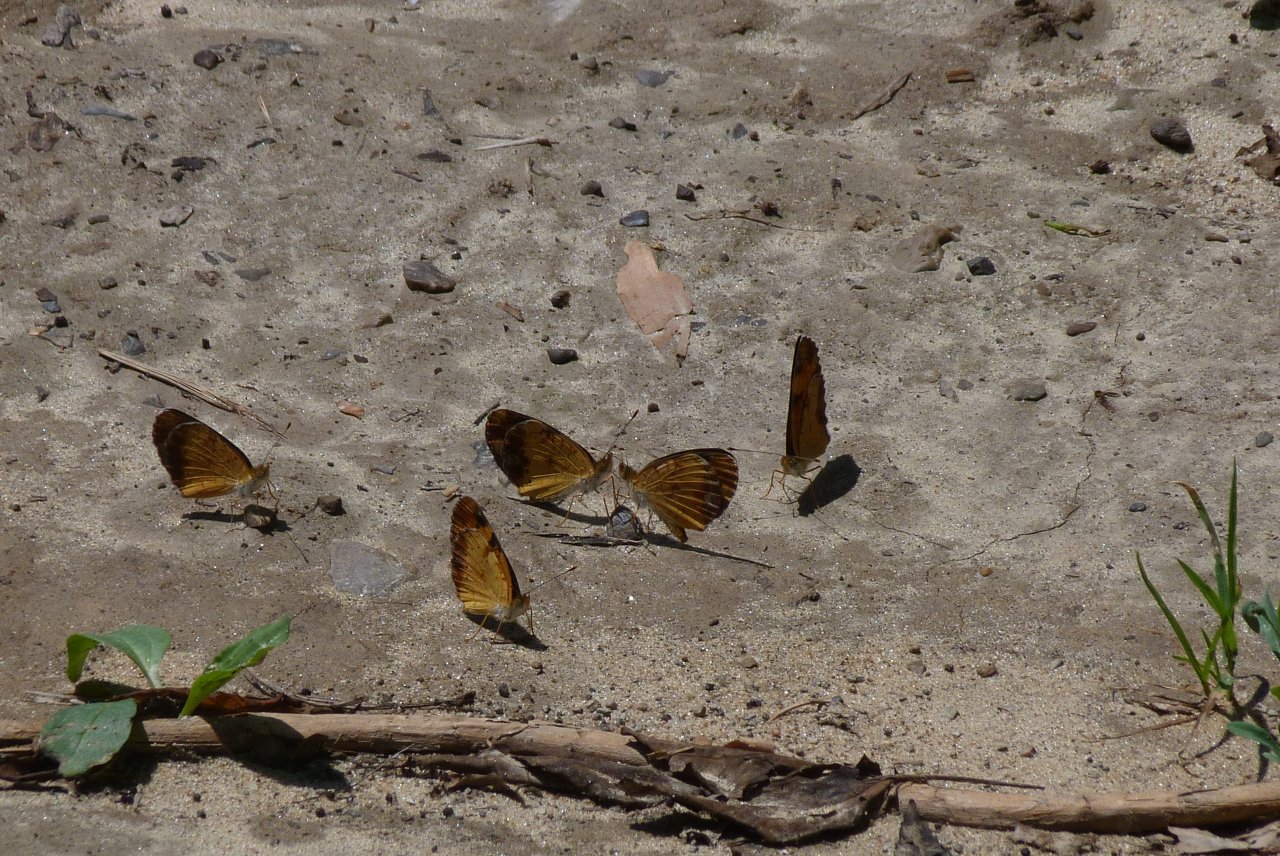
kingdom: Animalia
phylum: Arthropoda
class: Insecta
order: Lepidoptera
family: Nymphalidae
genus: Phyciodes
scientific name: Phyciodes tharos
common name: Northern Crescent
